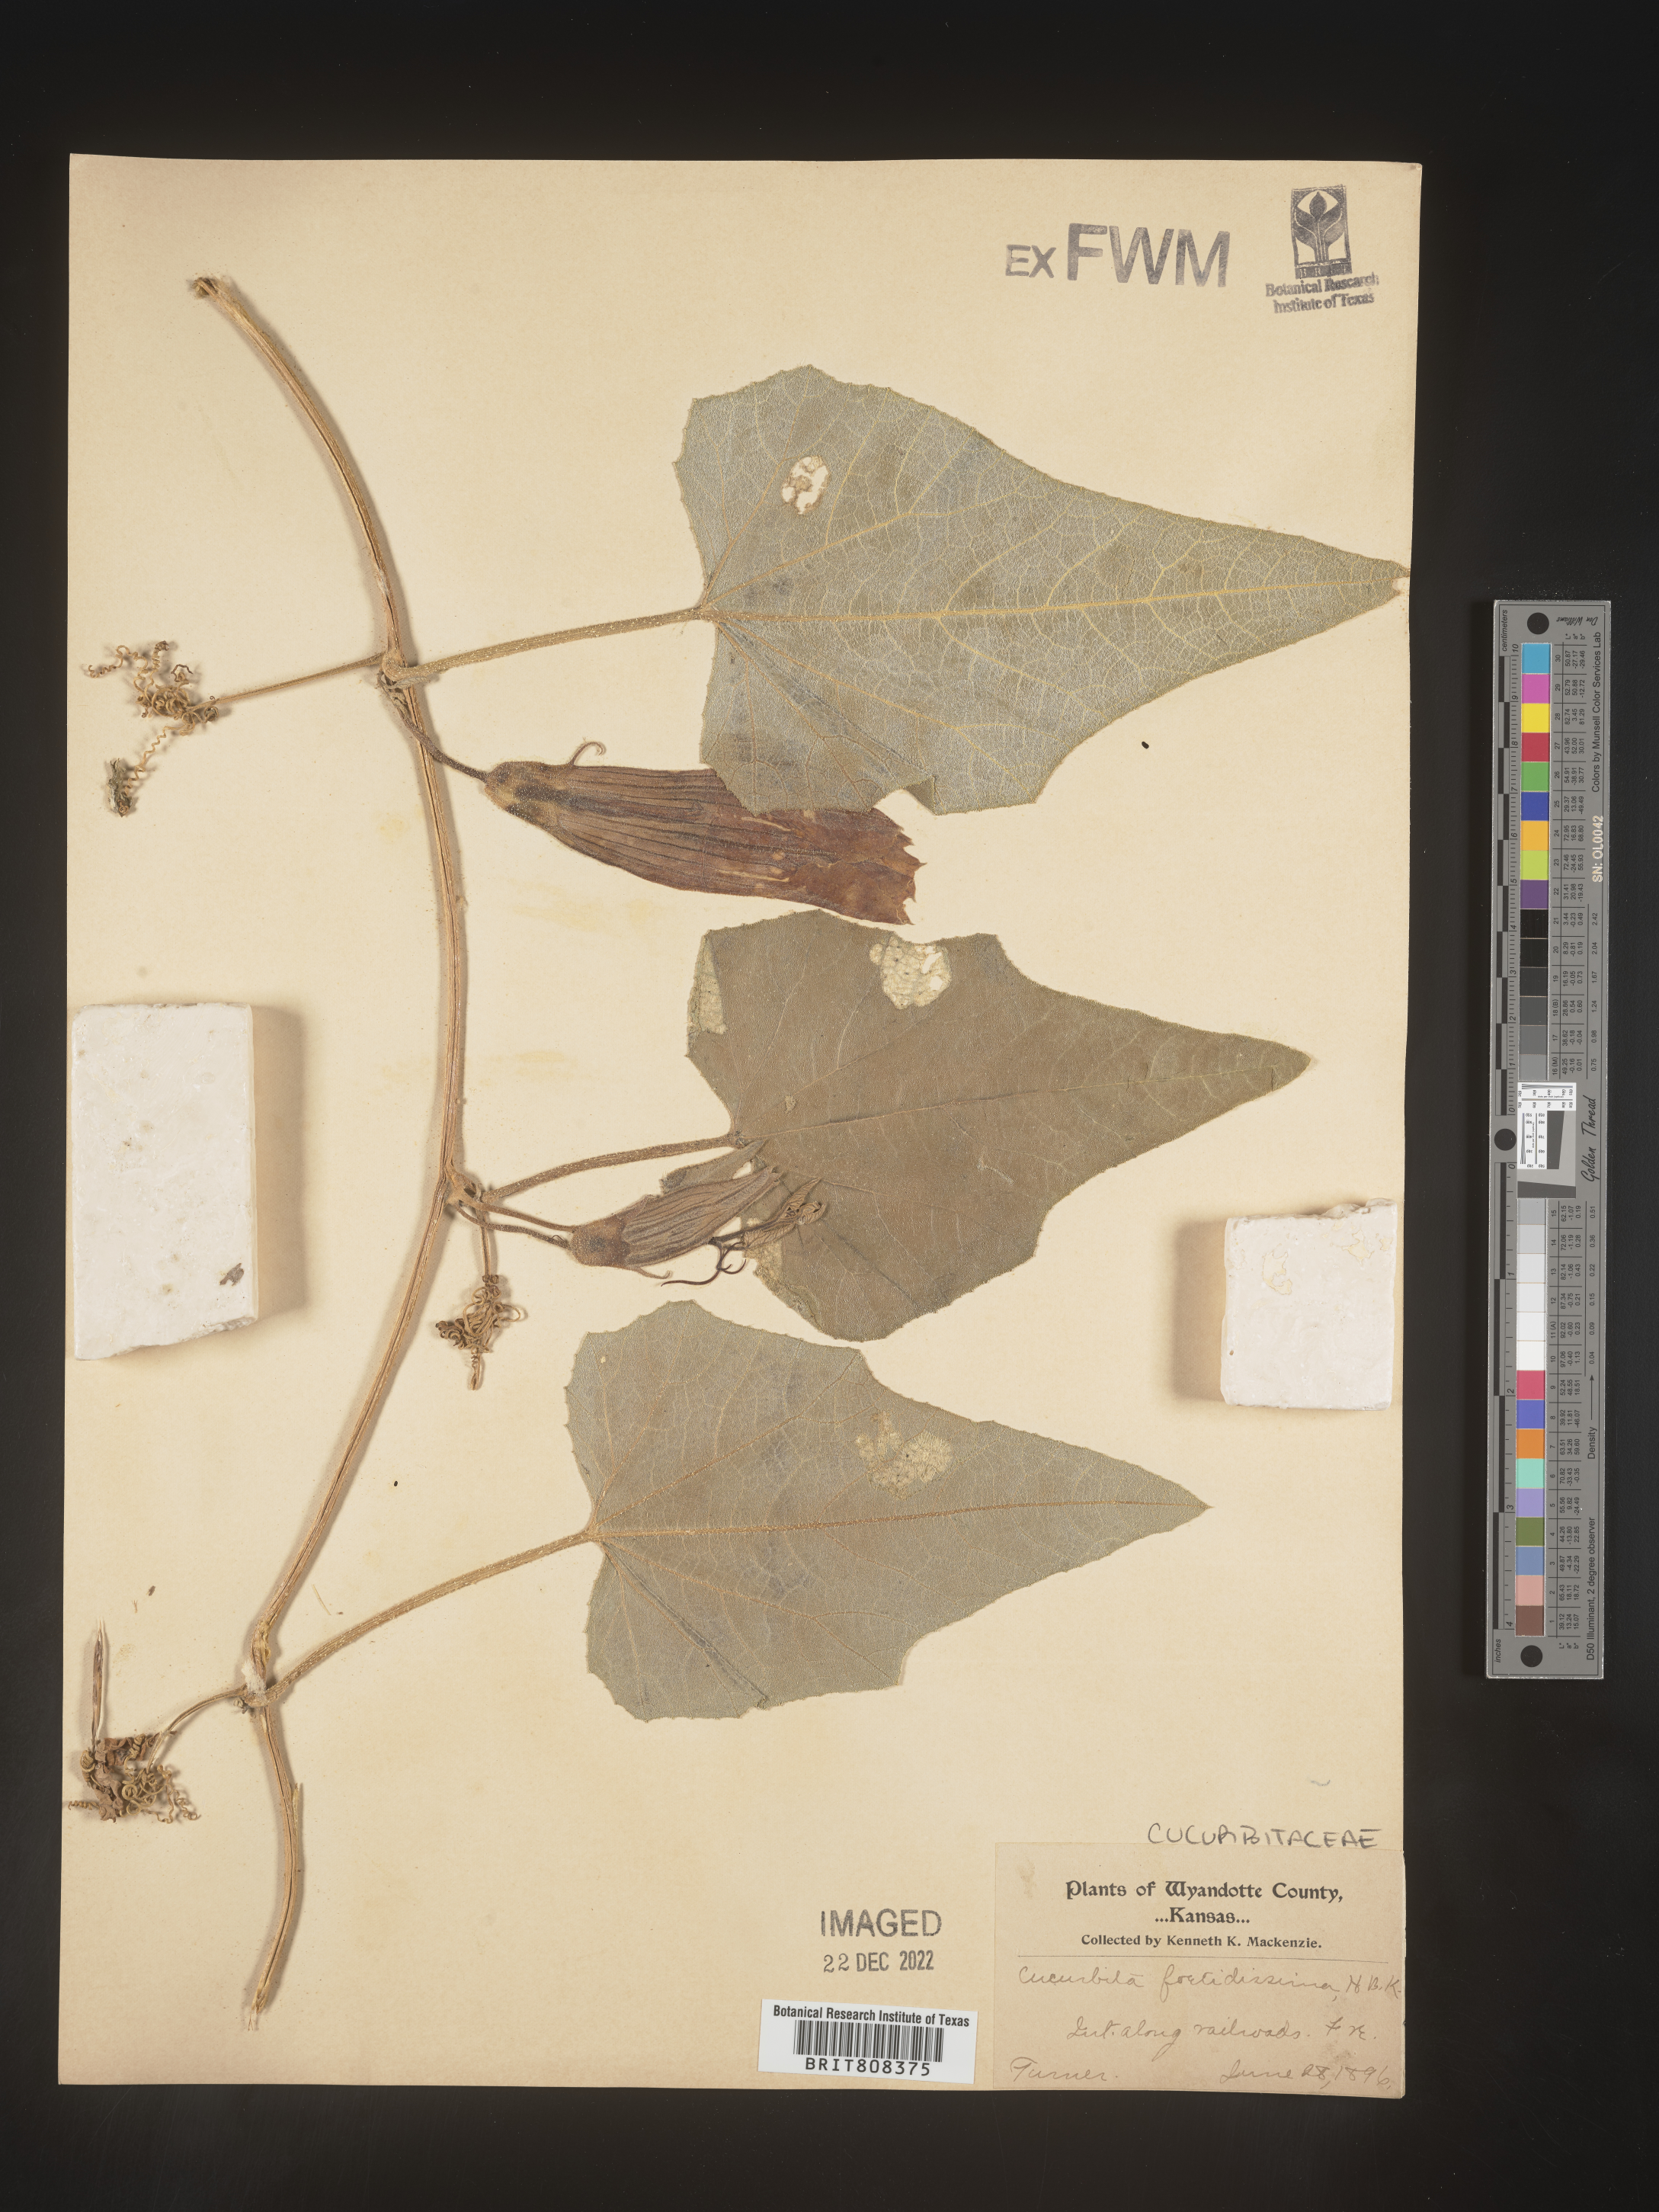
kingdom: Plantae
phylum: Tracheophyta
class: Magnoliopsida
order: Cucurbitales
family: Cucurbitaceae
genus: Cucurbita
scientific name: Cucurbita foetidissima
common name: Buffalo gourd
